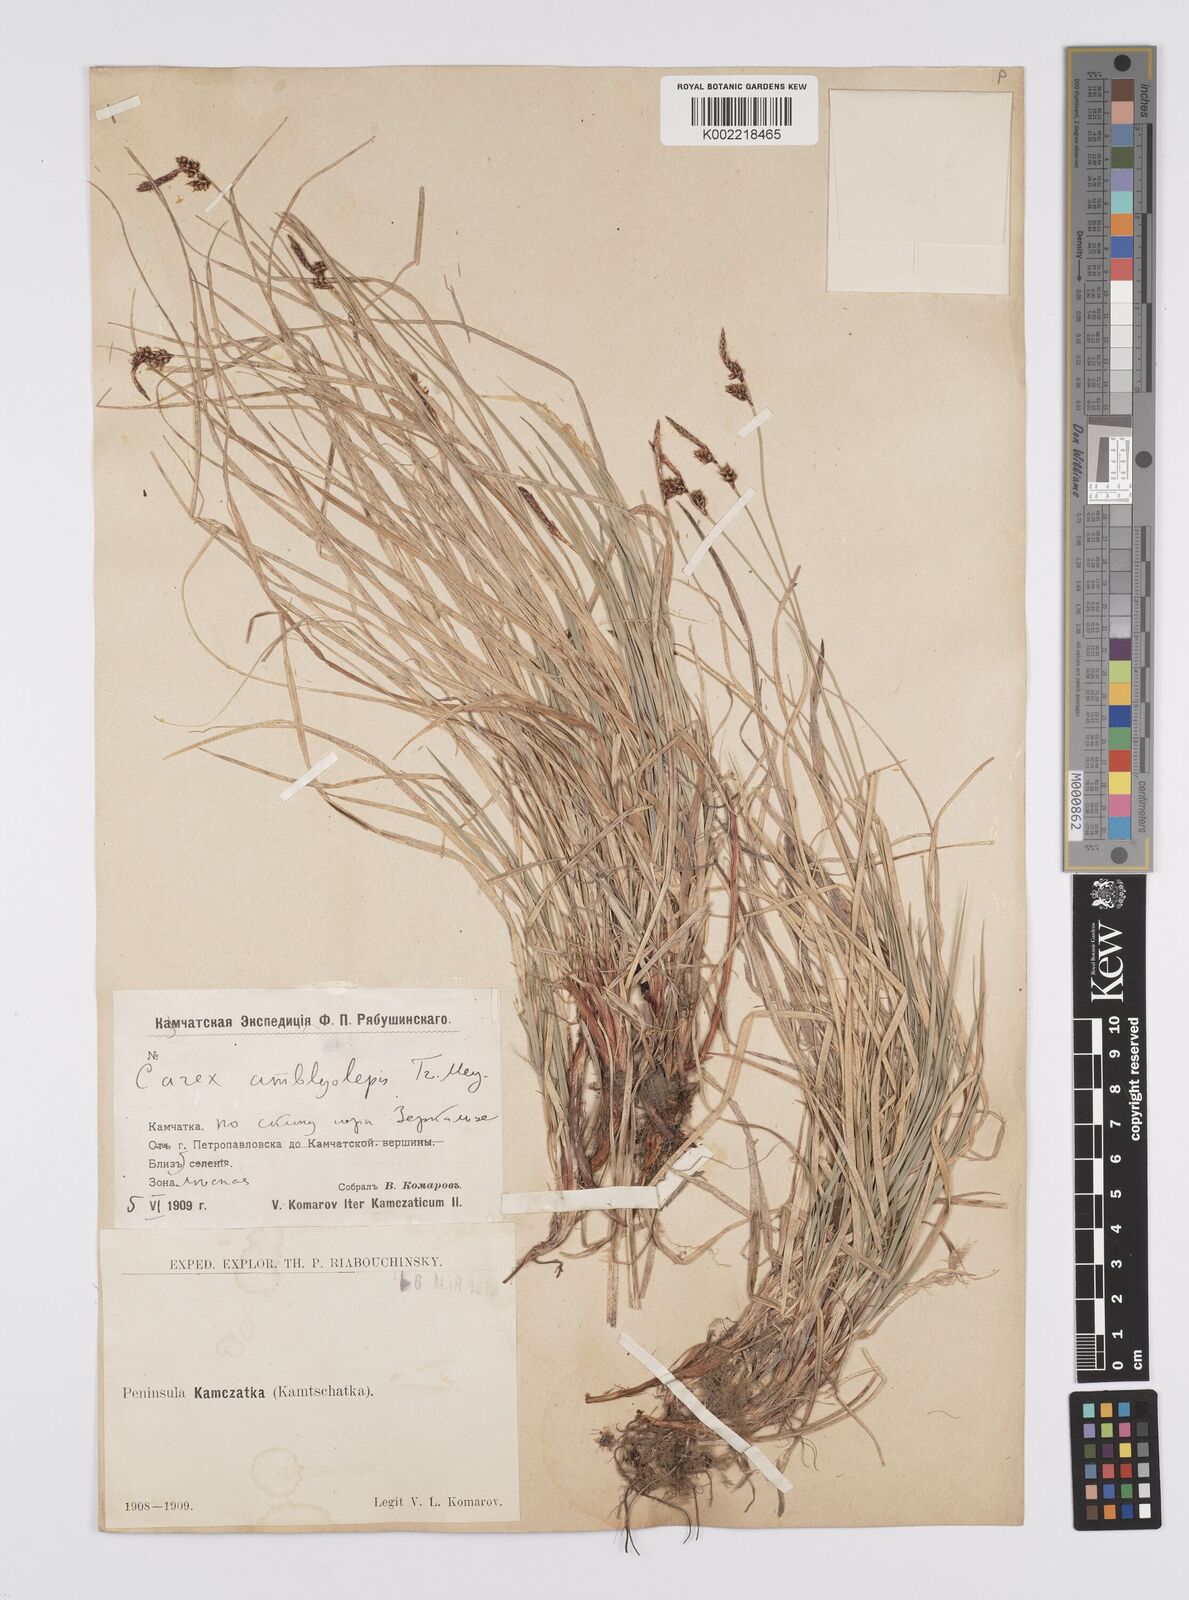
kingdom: Plantae
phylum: Tracheophyta
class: Liliopsida
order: Poales
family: Cyperaceae
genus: Carex
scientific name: Carex
